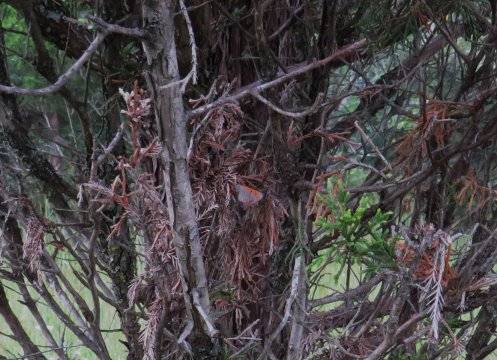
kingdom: Animalia
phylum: Arthropoda
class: Insecta
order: Lepidoptera
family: Lycaenidae
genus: Lycaena
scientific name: Lycaena phlaeas
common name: American Copper
